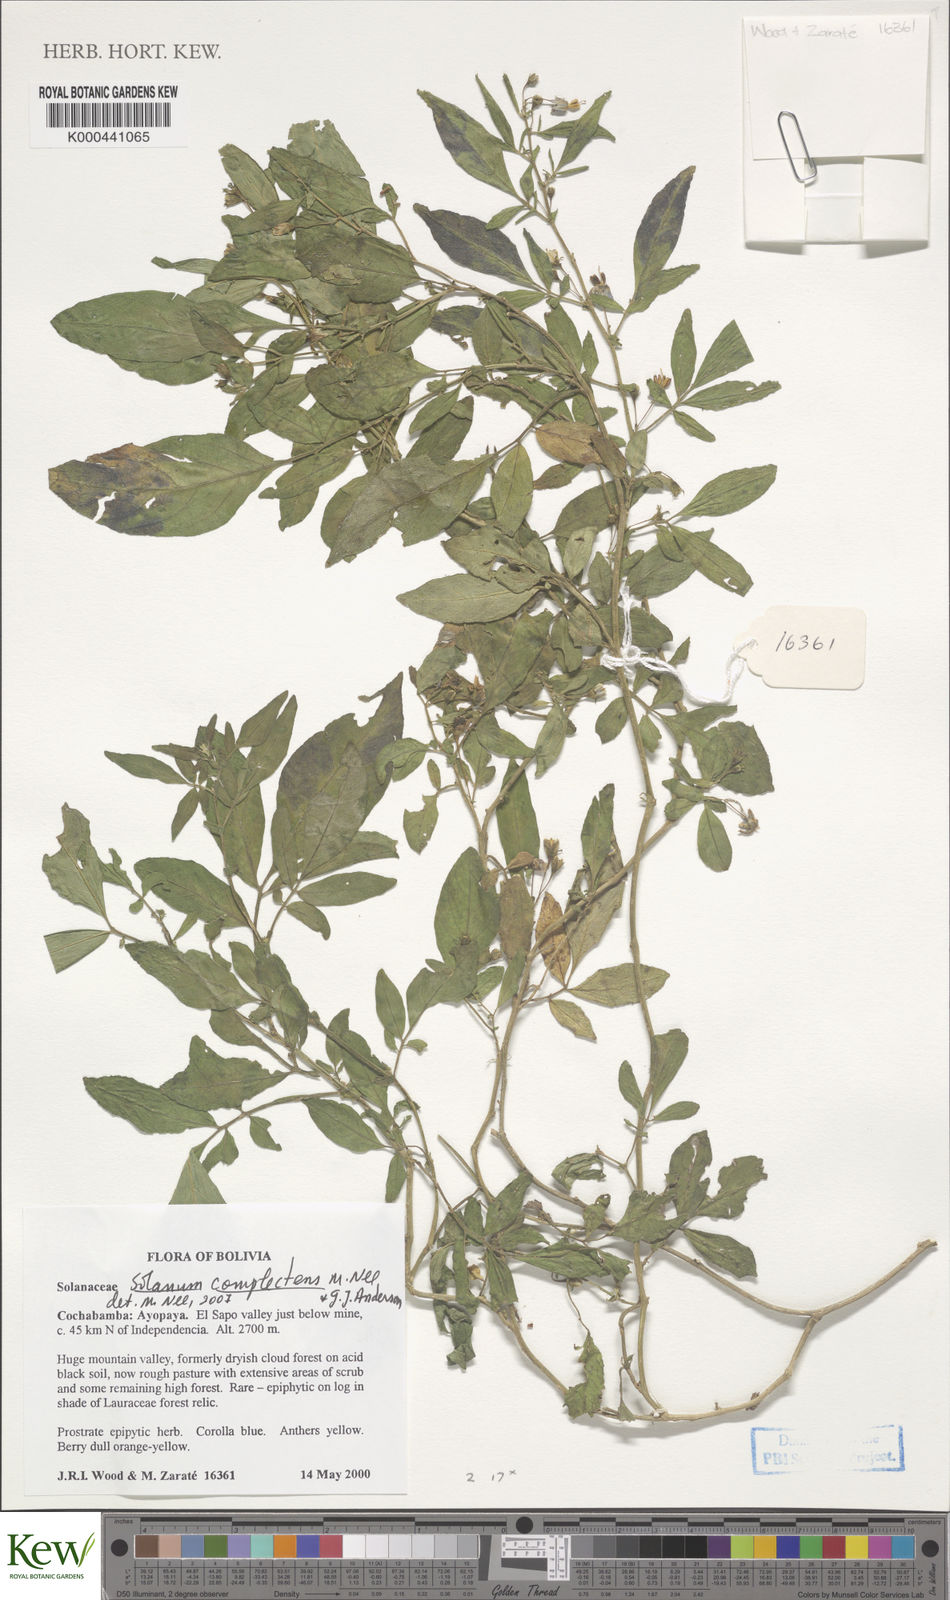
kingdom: Plantae
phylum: Tracheophyta
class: Magnoliopsida
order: Solanales
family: Solanaceae
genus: Solanum
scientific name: Solanum complectens
